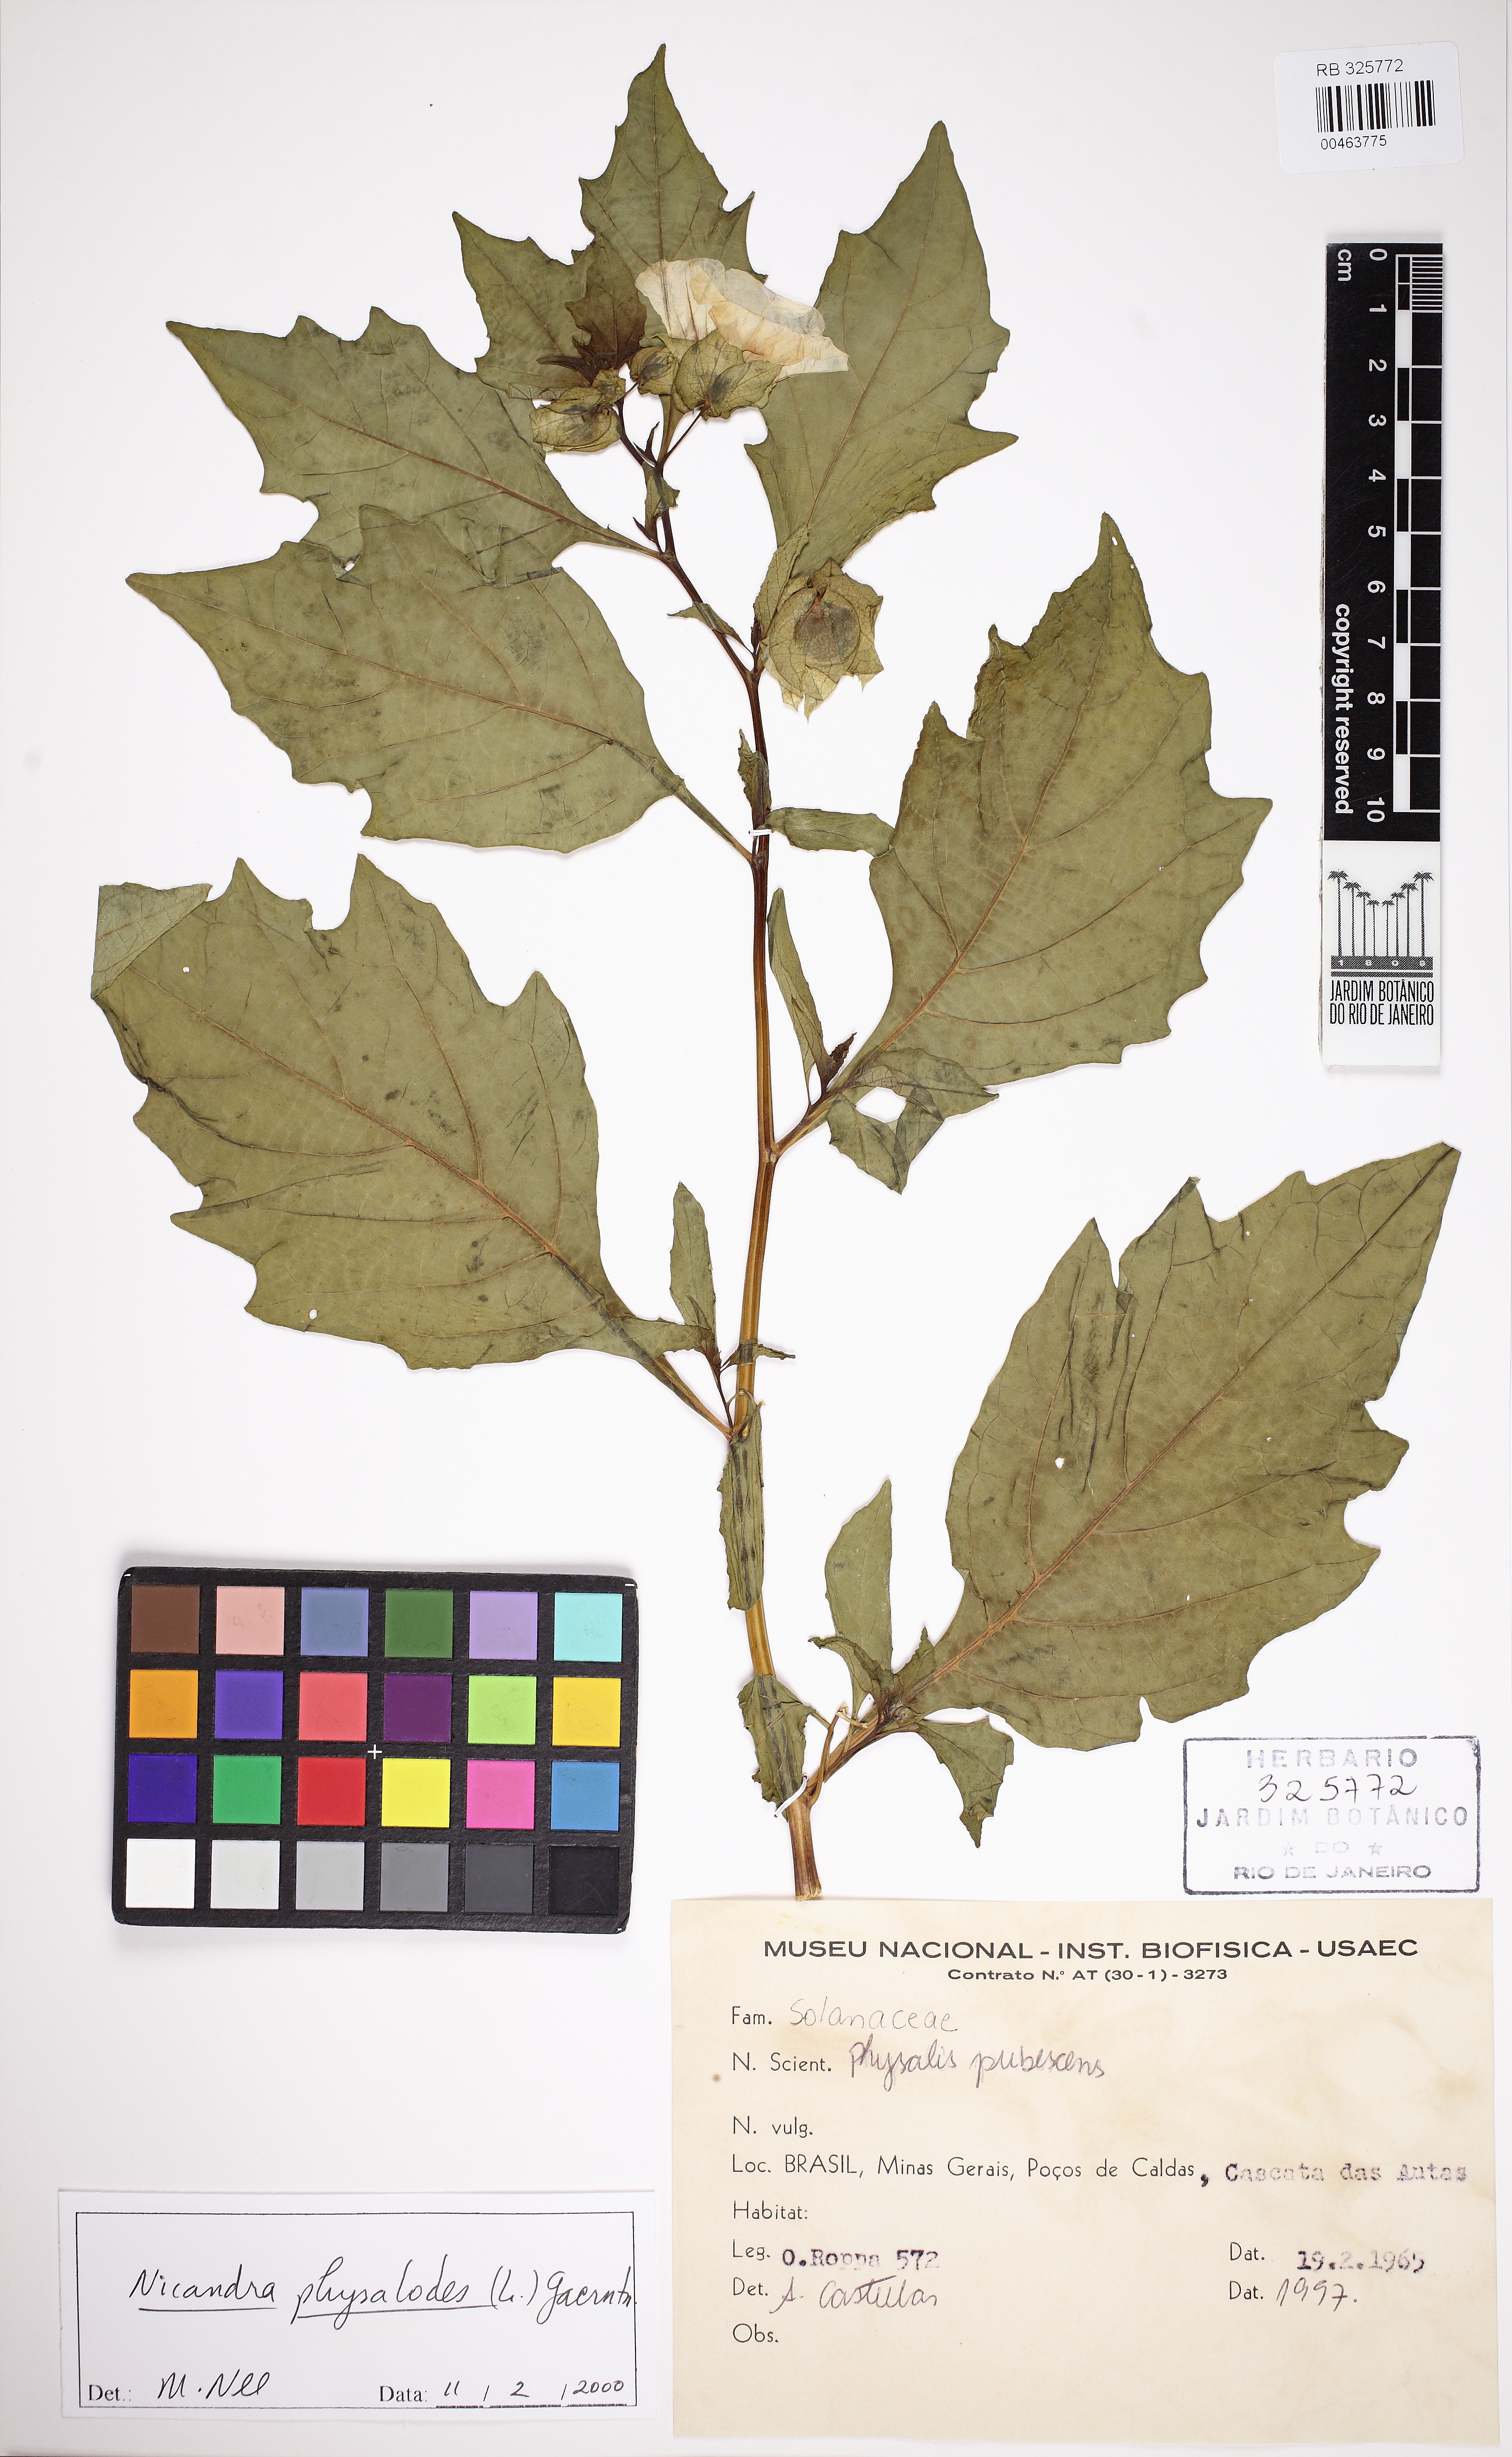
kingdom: Plantae
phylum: Tracheophyta
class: Magnoliopsida
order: Solanales
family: Solanaceae
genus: Nicandra
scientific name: Nicandra physalodes
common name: Apple-of-peru
